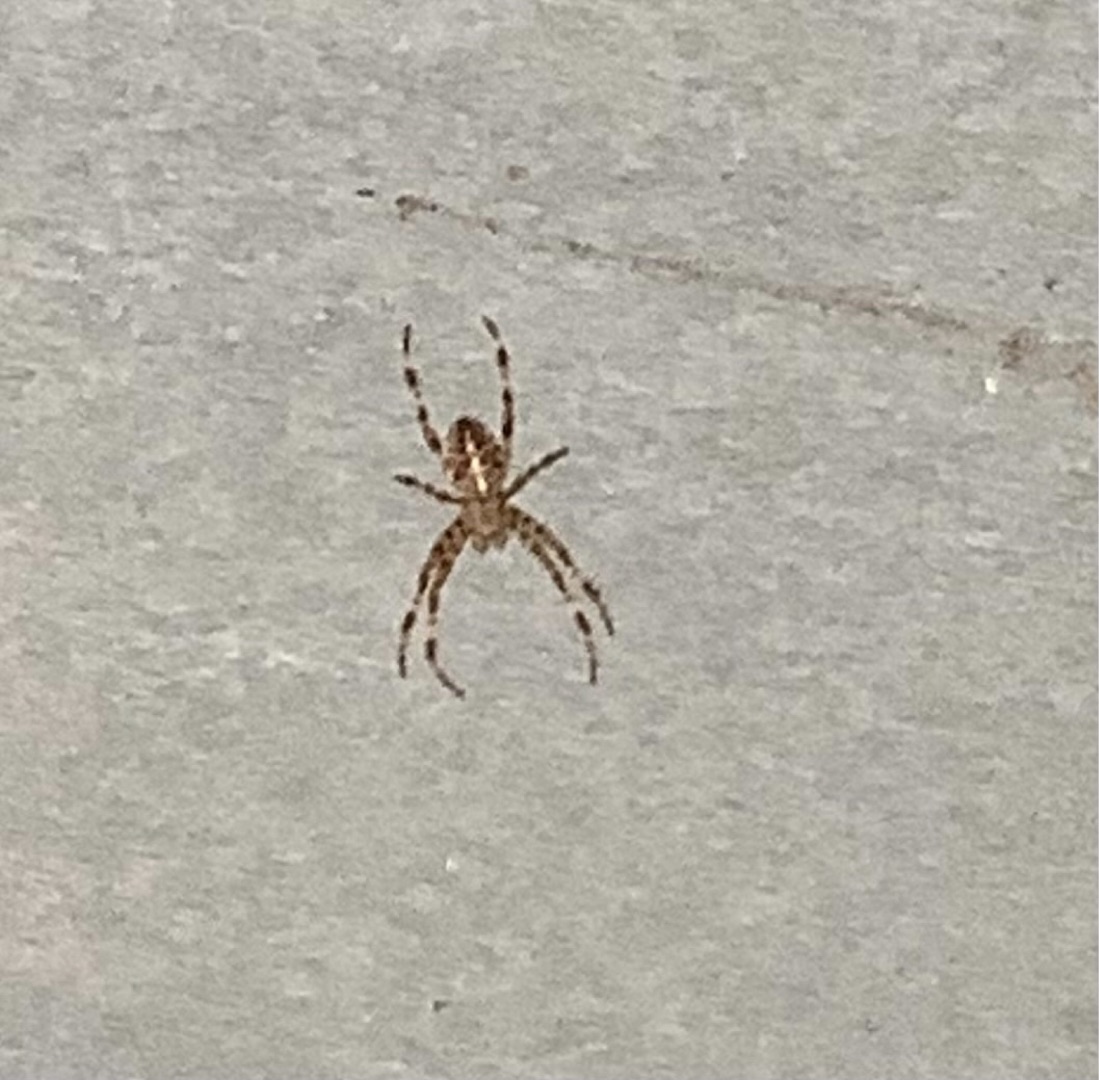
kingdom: Animalia
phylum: Arthropoda
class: Arachnida
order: Araneae
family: Araneidae
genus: Araneus
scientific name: Araneus diadematus
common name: Korsedderkop
